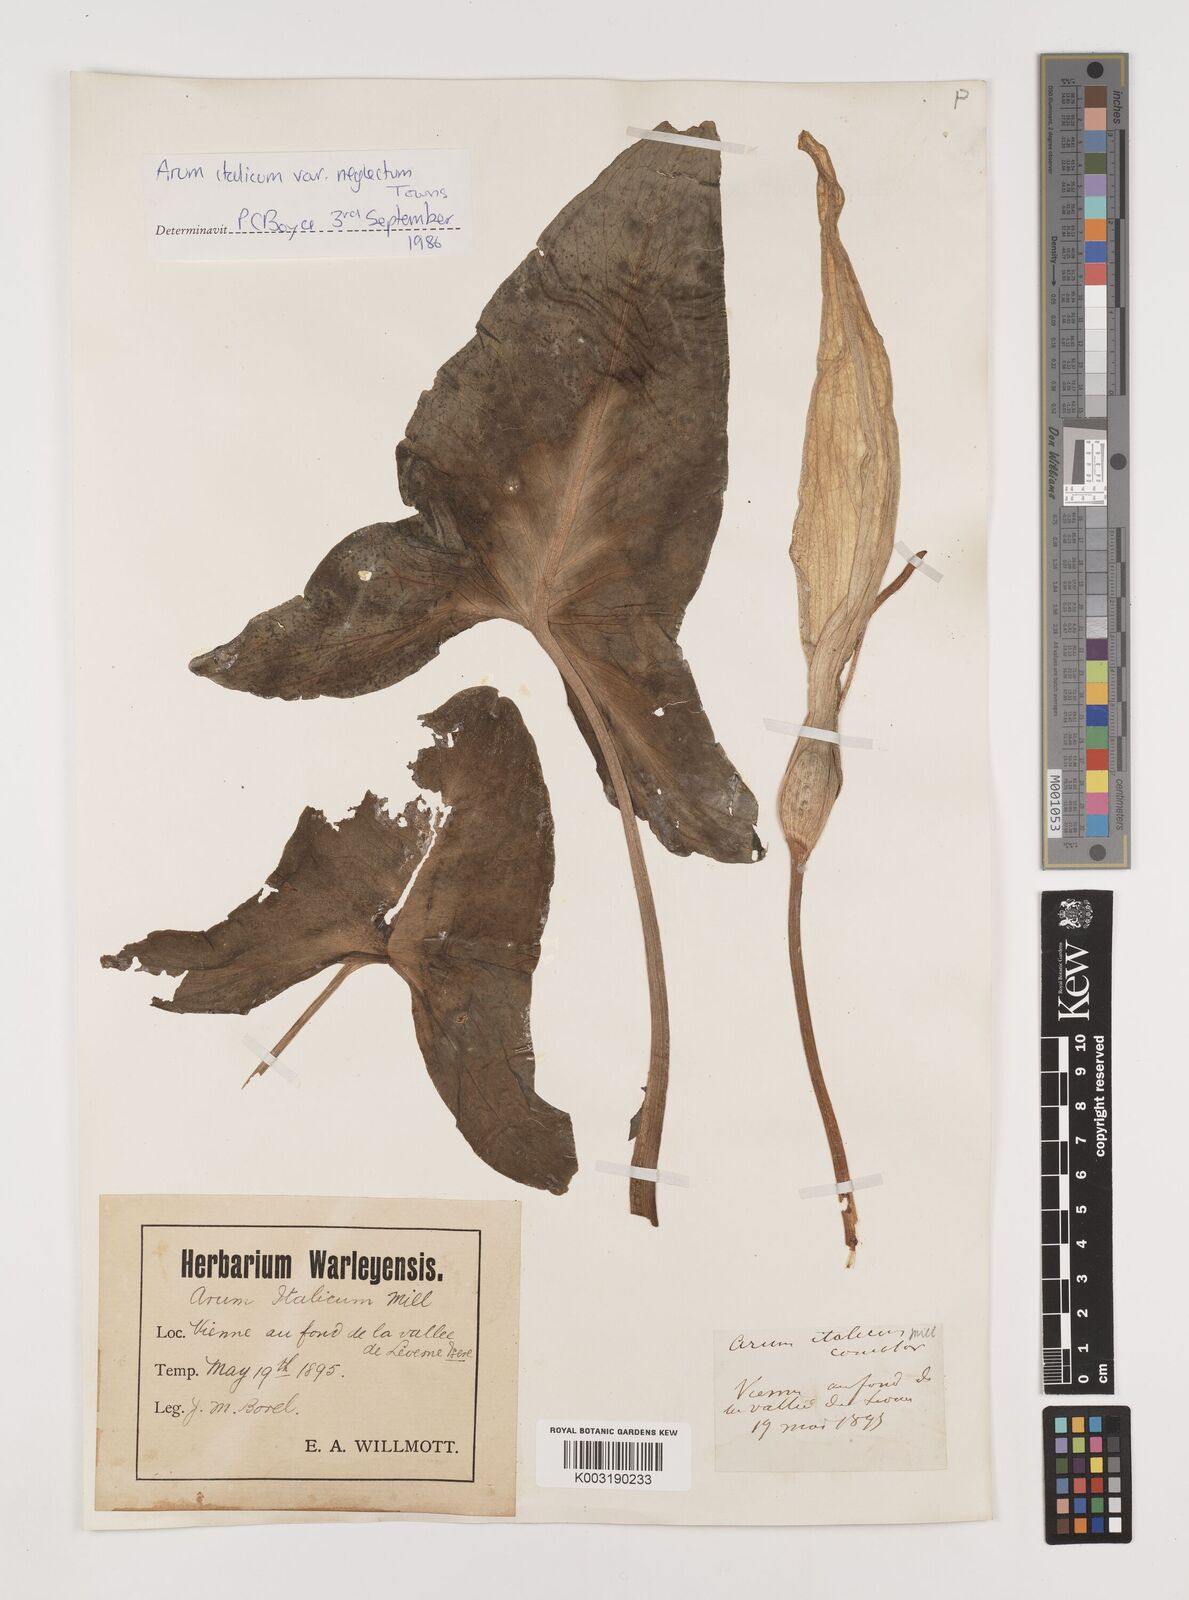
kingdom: Plantae
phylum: Tracheophyta
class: Liliopsida
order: Alismatales
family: Araceae
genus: Arum
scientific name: Arum italicum
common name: Italian lords-and-ladies
